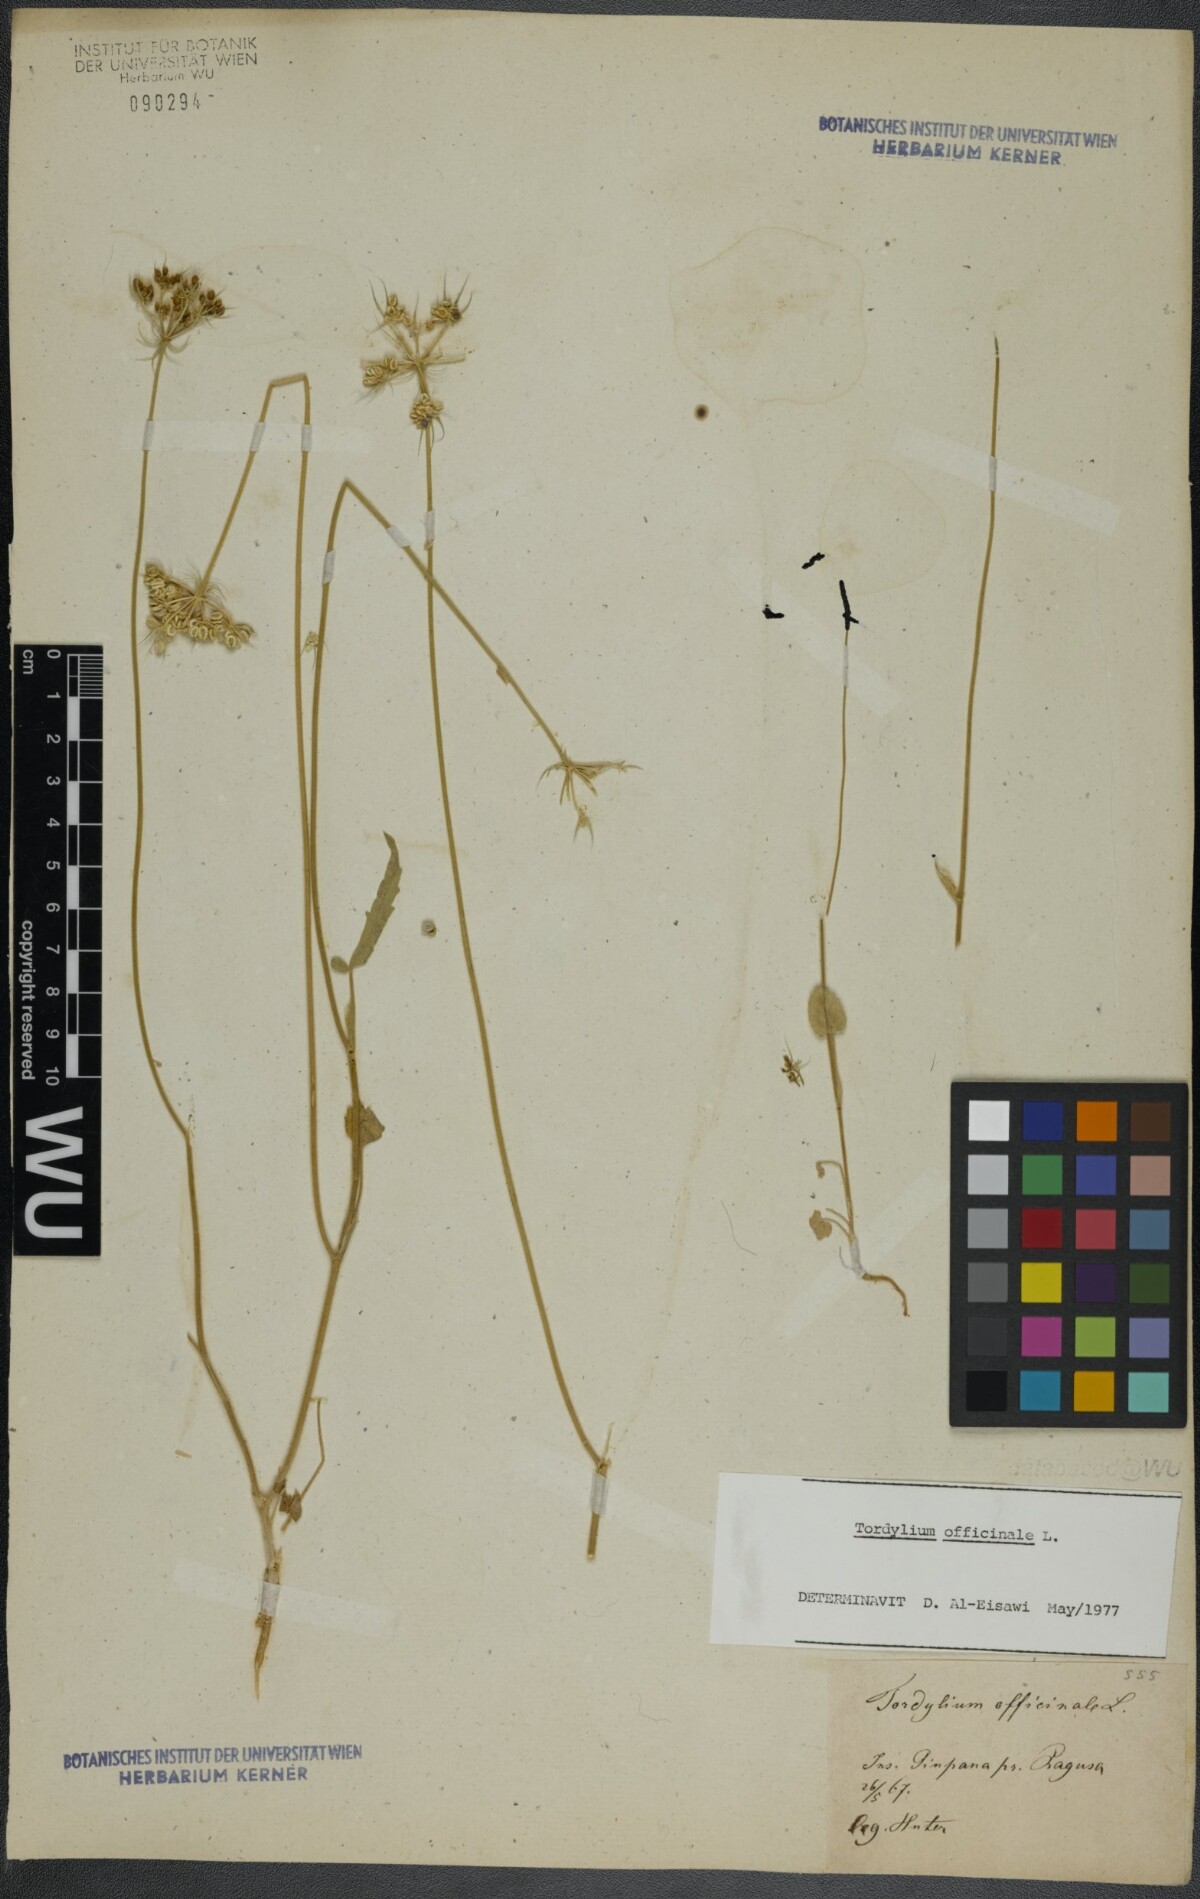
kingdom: Plantae
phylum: Tracheophyta
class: Magnoliopsida
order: Apiales
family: Apiaceae
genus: Tordylium
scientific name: Tordylium officinale
